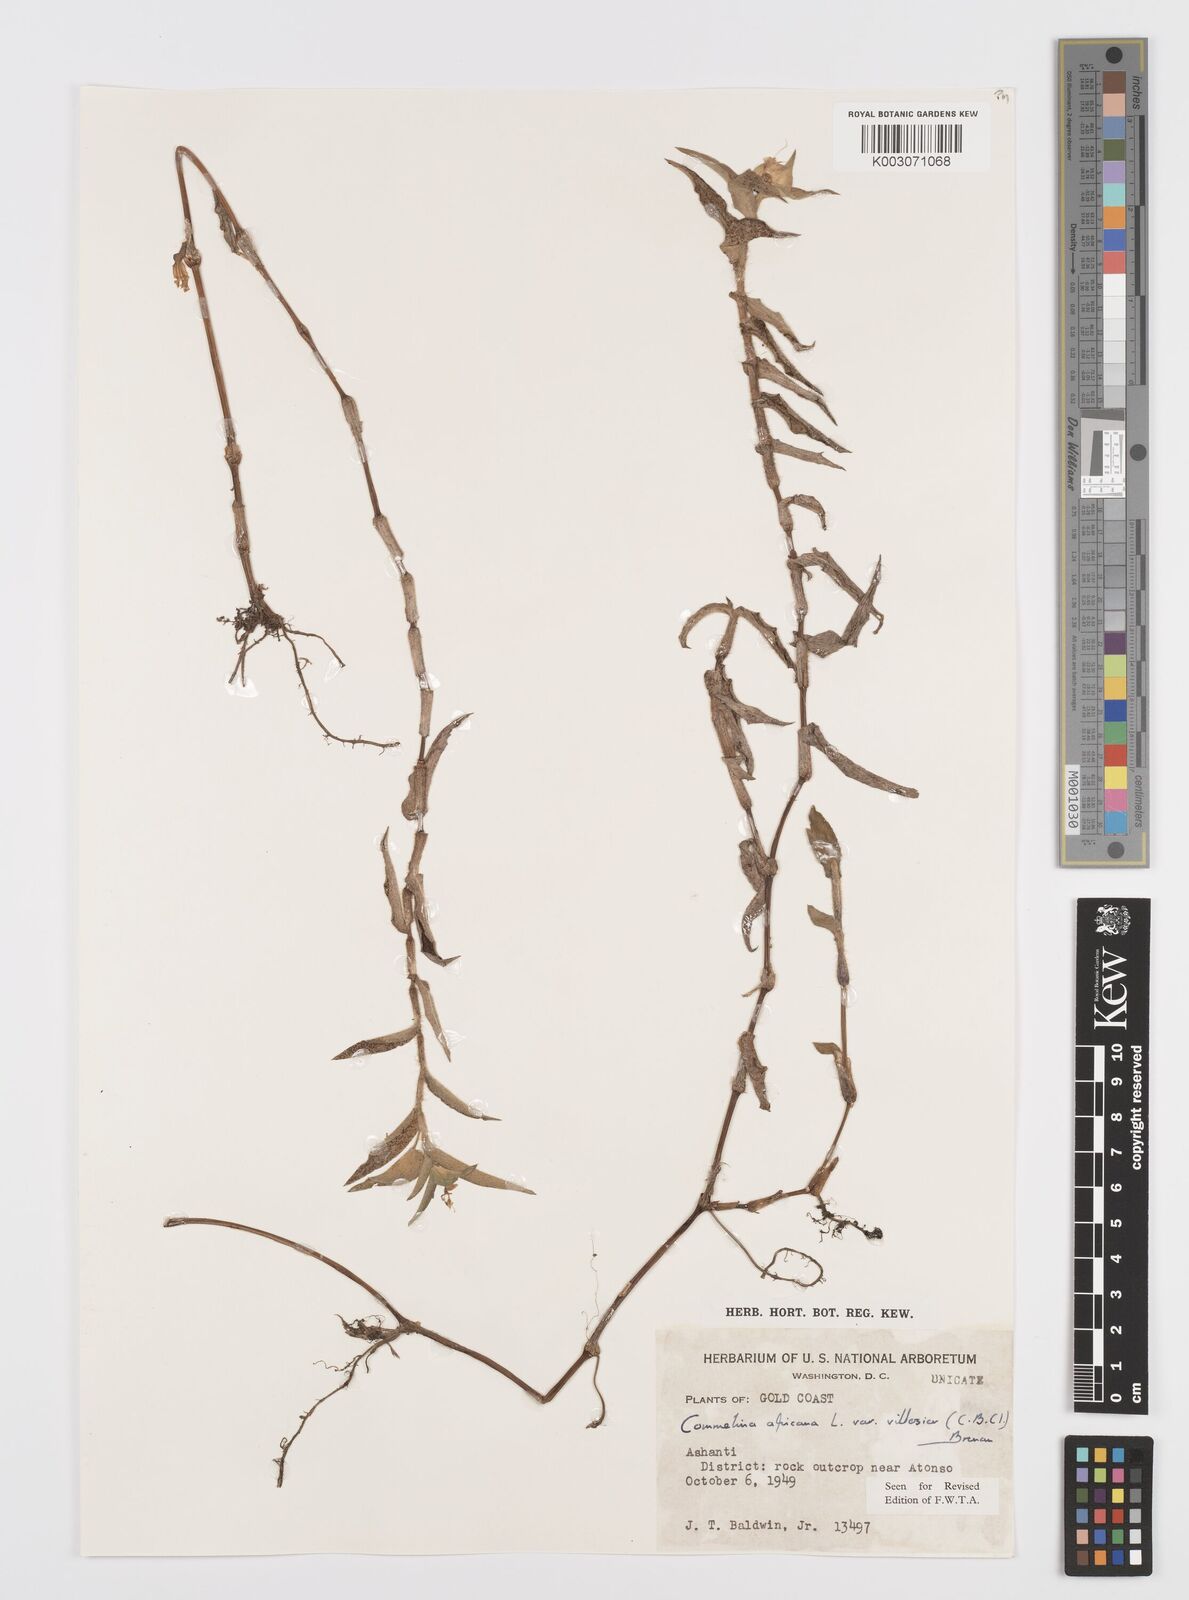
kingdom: Plantae
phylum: Tracheophyta
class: Liliopsida
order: Commelinales
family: Commelinaceae
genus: Commelina
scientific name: Commelina africana
